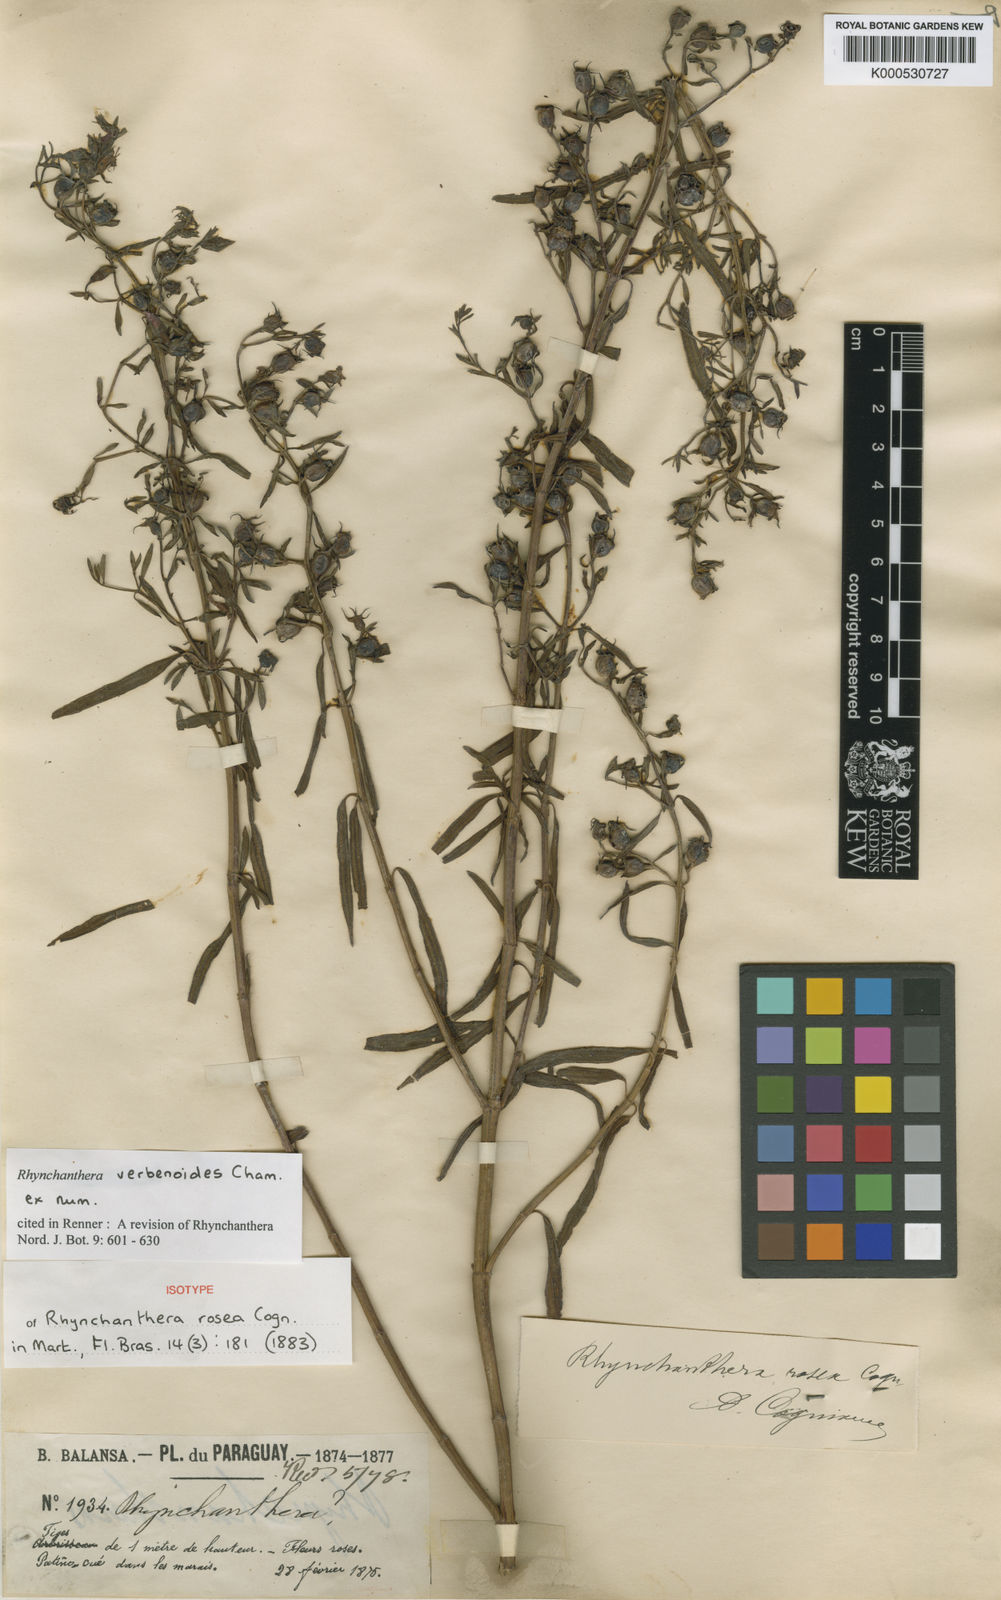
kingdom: Plantae
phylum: Tracheophyta
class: Magnoliopsida
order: Myrtales
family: Melastomataceae
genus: Rhynchanthera
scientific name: Rhynchanthera verbenoides
